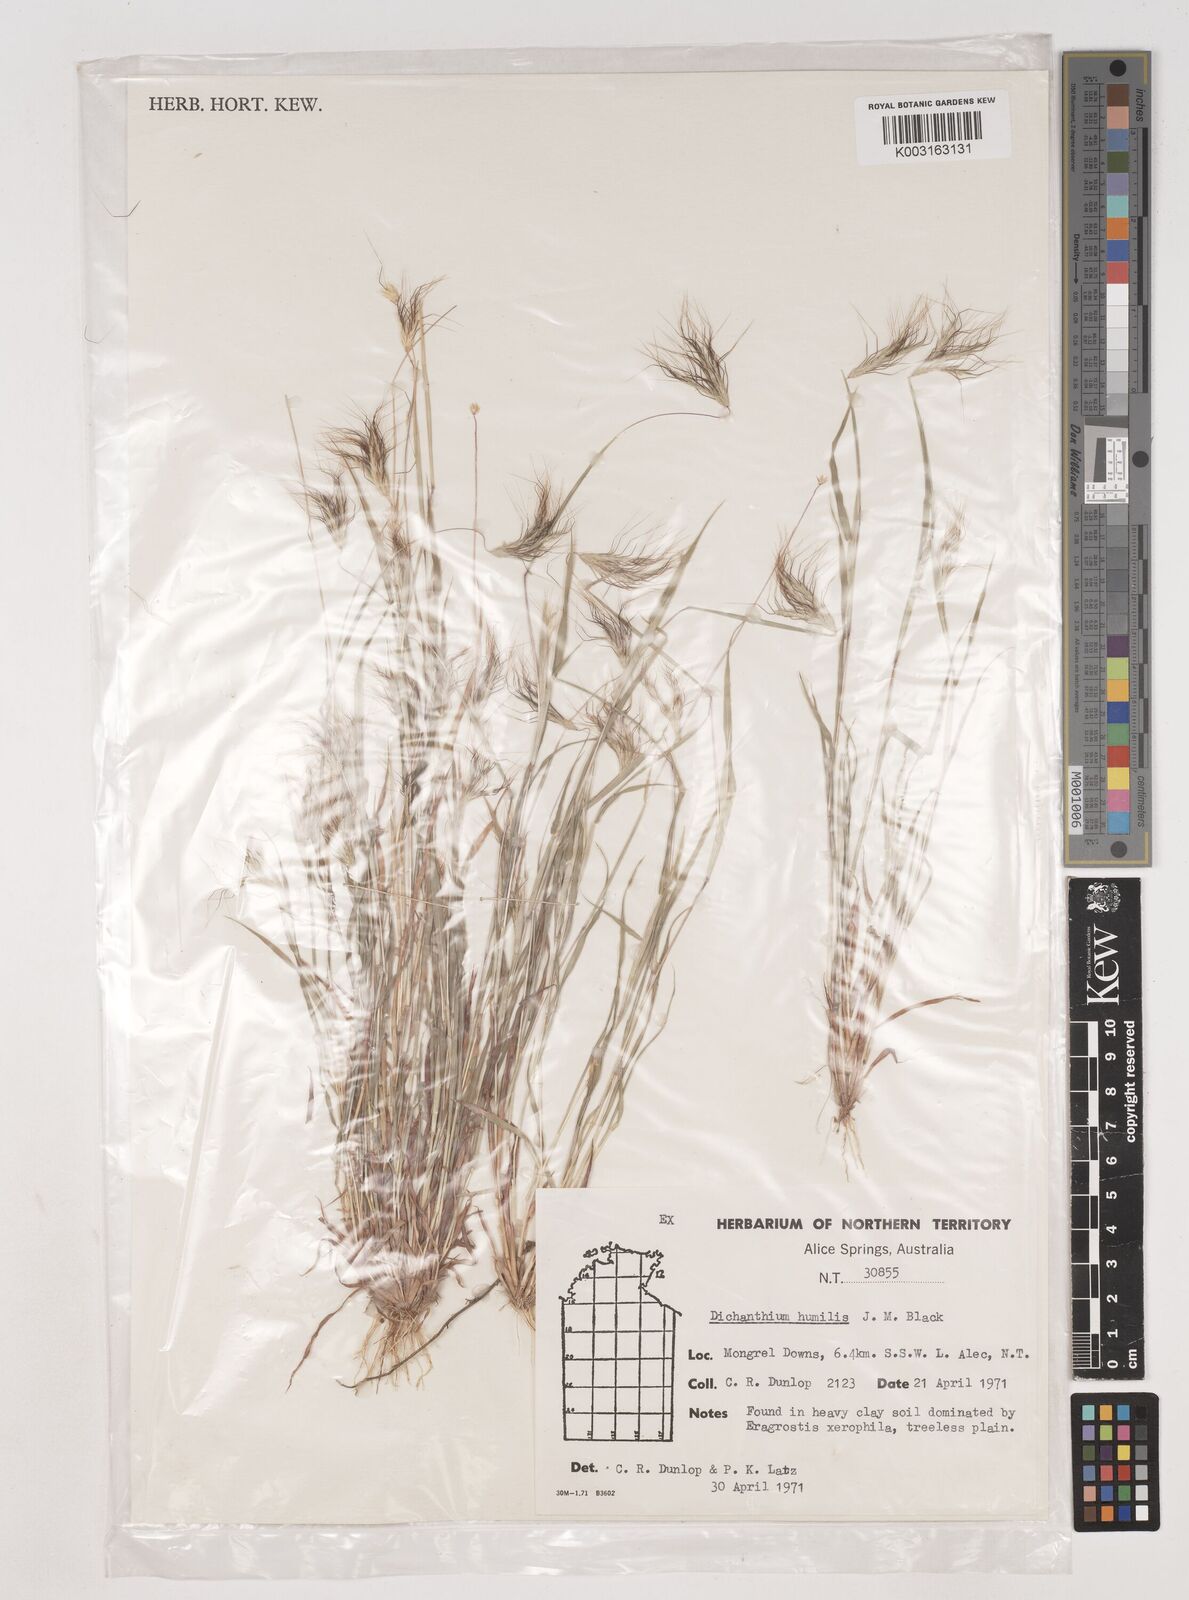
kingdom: Plantae
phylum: Tracheophyta
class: Liliopsida
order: Poales
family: Poaceae
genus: Dichanthium
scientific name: Dichanthium sericeum
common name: Silky bluestem
